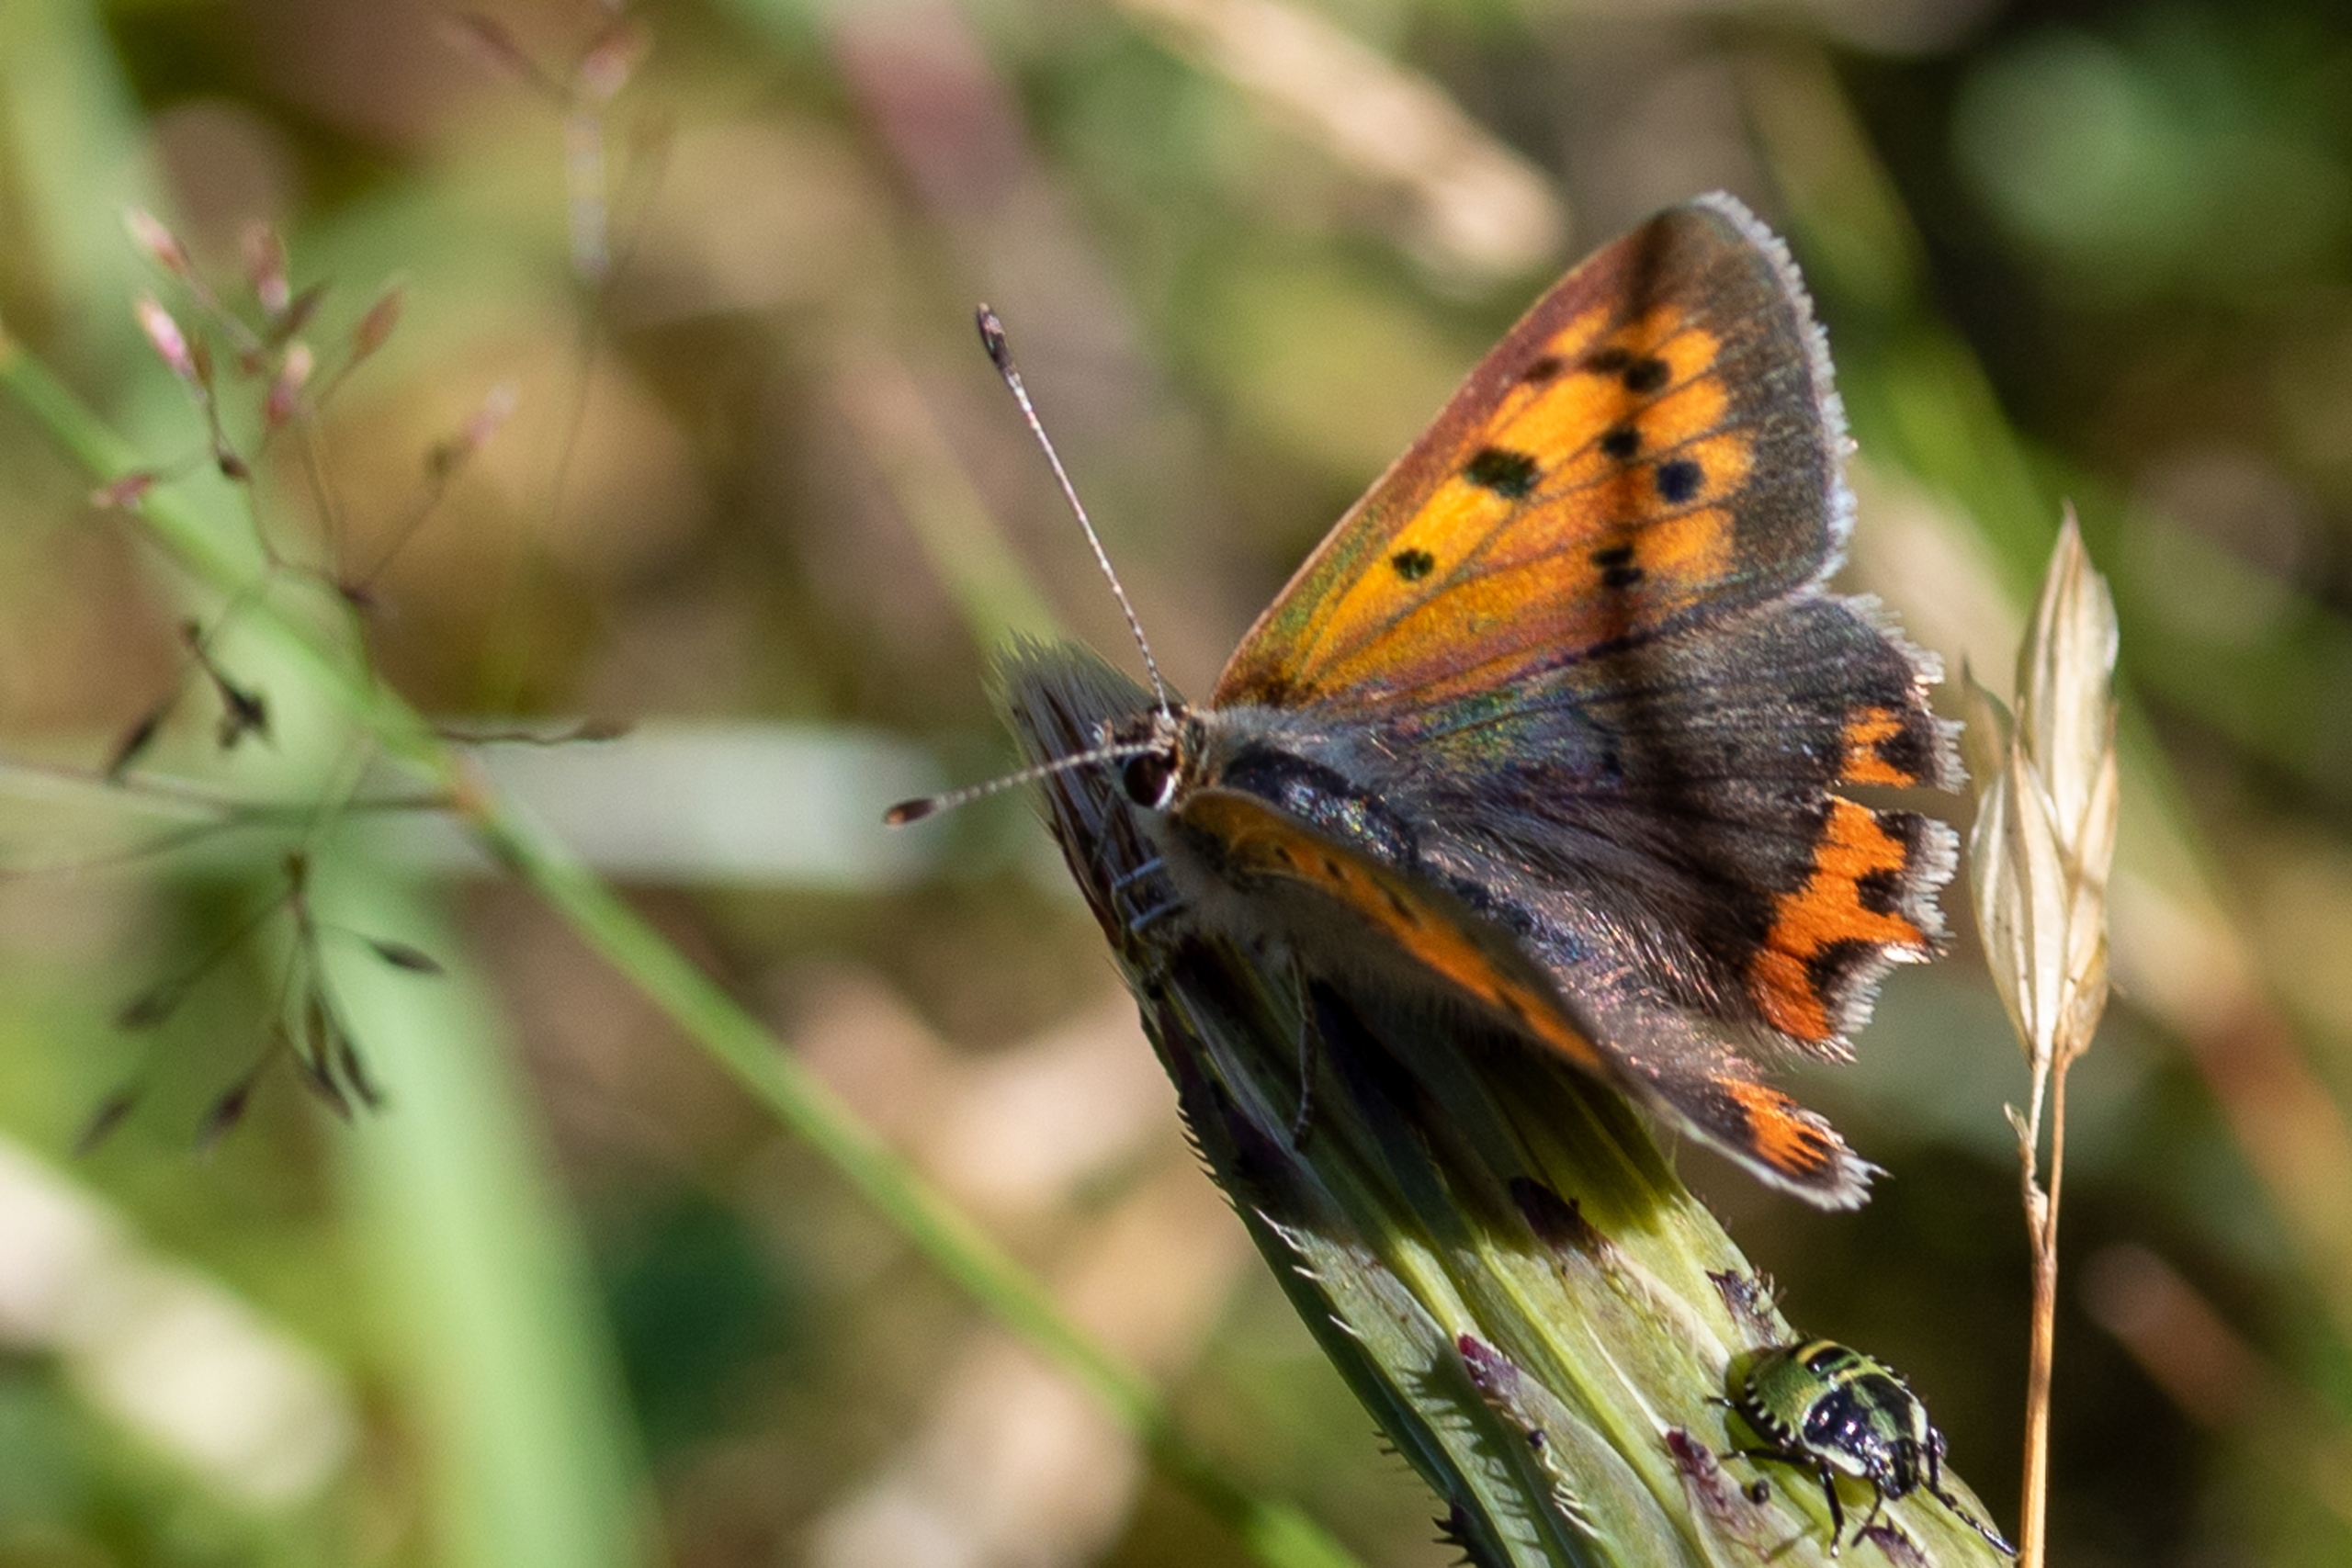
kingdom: Animalia
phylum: Arthropoda
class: Insecta
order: Lepidoptera
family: Lycaenidae
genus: Lycaena
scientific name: Lycaena phlaeas
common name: Lille ildfugl
